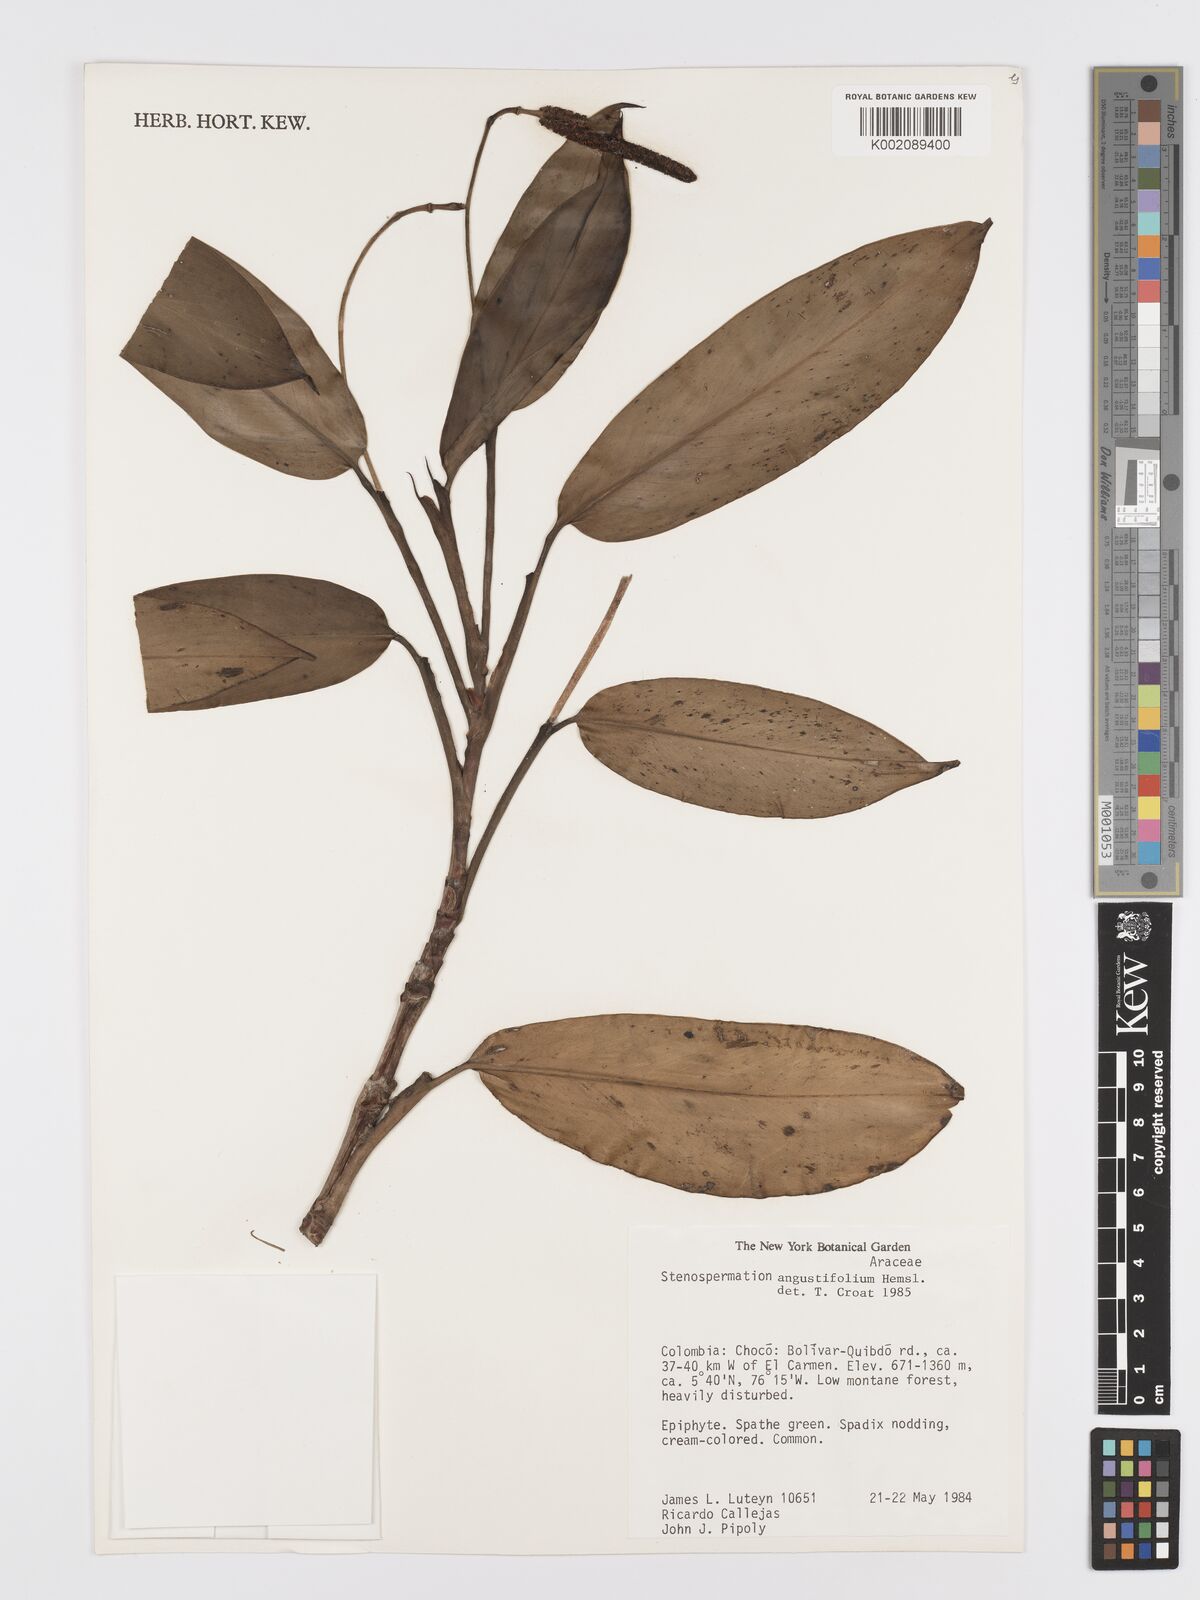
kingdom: Plantae
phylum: Tracheophyta
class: Liliopsida
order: Alismatales
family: Araceae
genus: Stenospermation
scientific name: Stenospermation angustifolium
